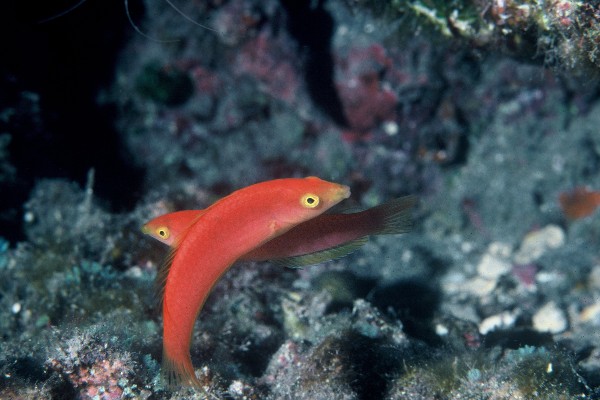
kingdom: Animalia
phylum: Chordata
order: Perciformes
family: Labridae
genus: Pseudojuloides
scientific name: Pseudojuloides cerasinus
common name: Smalltail wrasse
